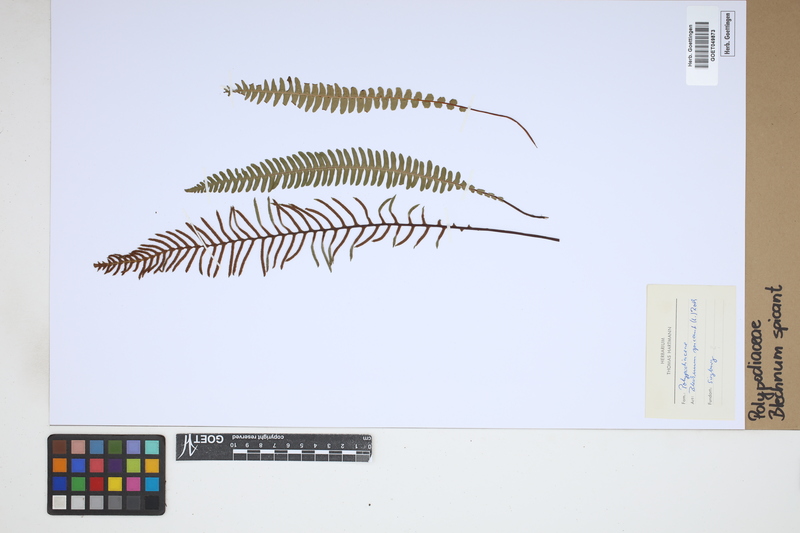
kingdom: Plantae
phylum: Tracheophyta
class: Polypodiopsida
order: Polypodiales
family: Blechnaceae
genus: Struthiopteris
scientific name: Struthiopteris spicant
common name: Deer fern
